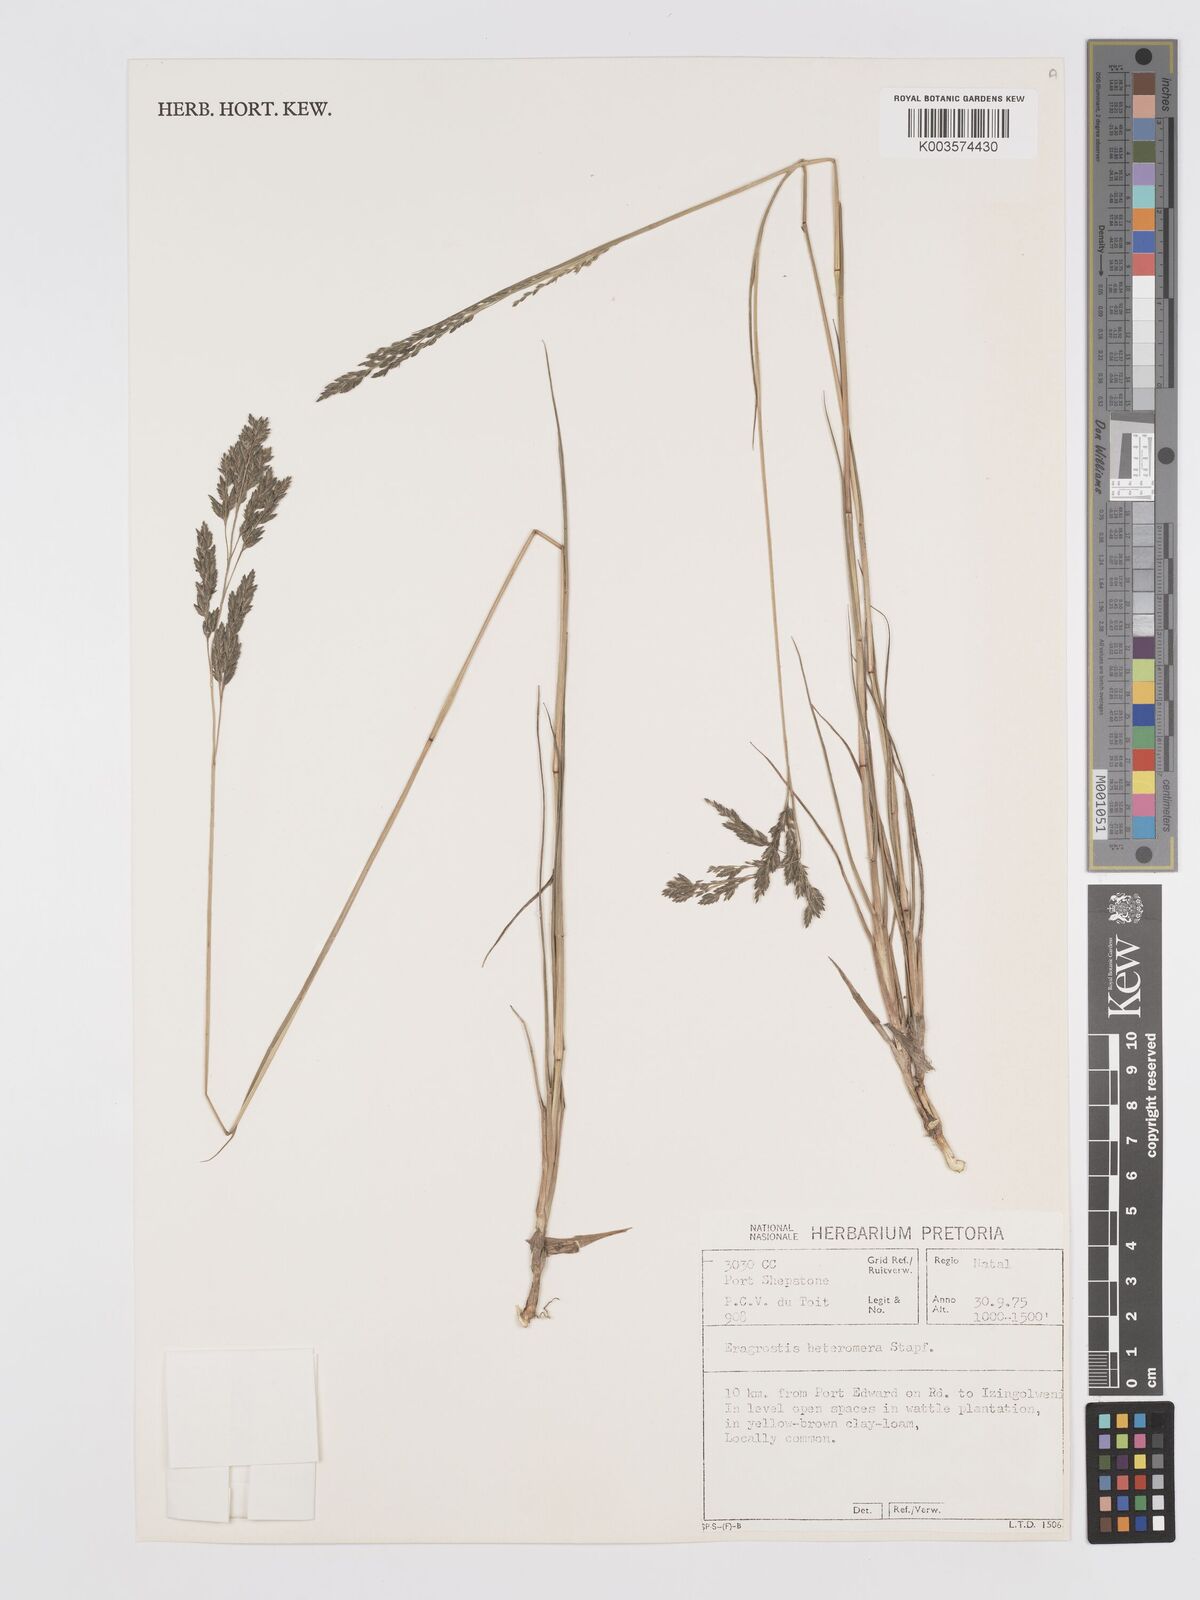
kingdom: Plantae
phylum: Tracheophyta
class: Liliopsida
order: Poales
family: Poaceae
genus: Eragrostis
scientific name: Eragrostis heteromera
